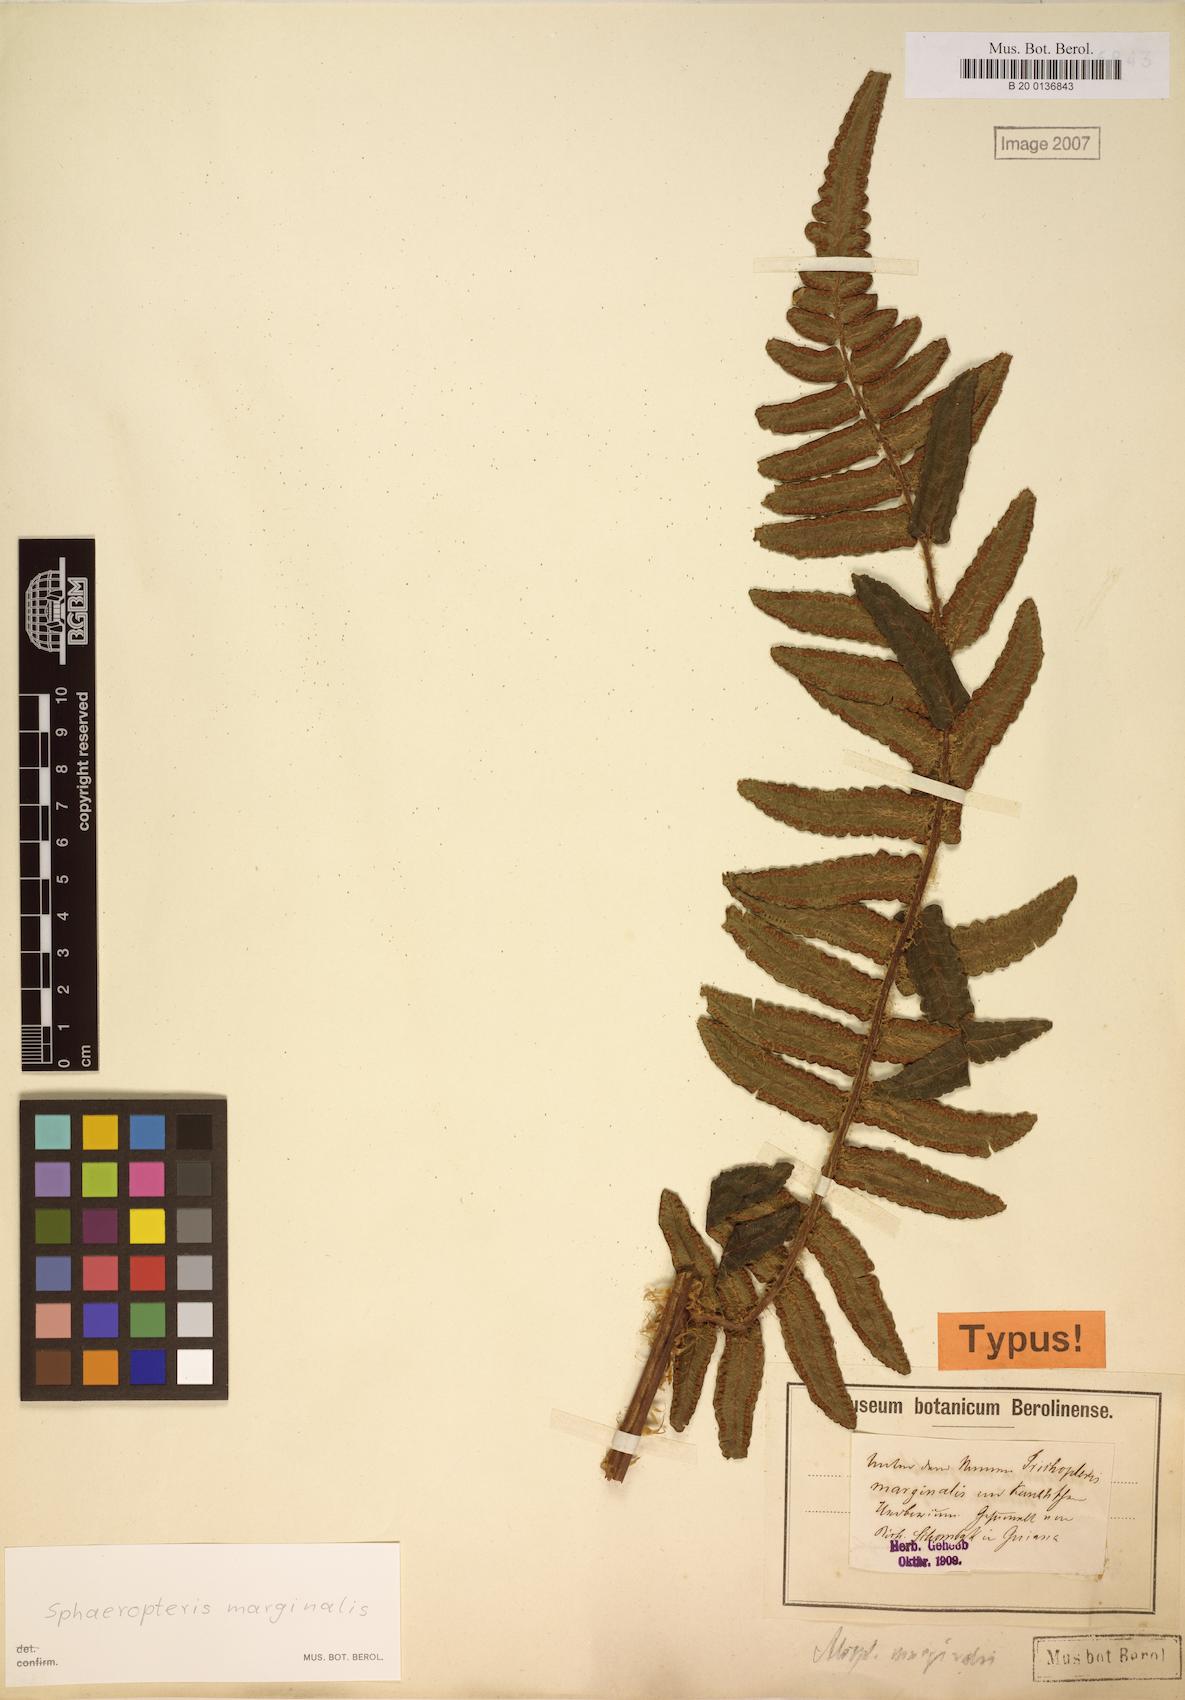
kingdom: Plantae
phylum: Tracheophyta
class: Polypodiopsida
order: Cyatheales
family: Cyatheaceae
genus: Cyathea
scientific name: Cyathea marginalis
